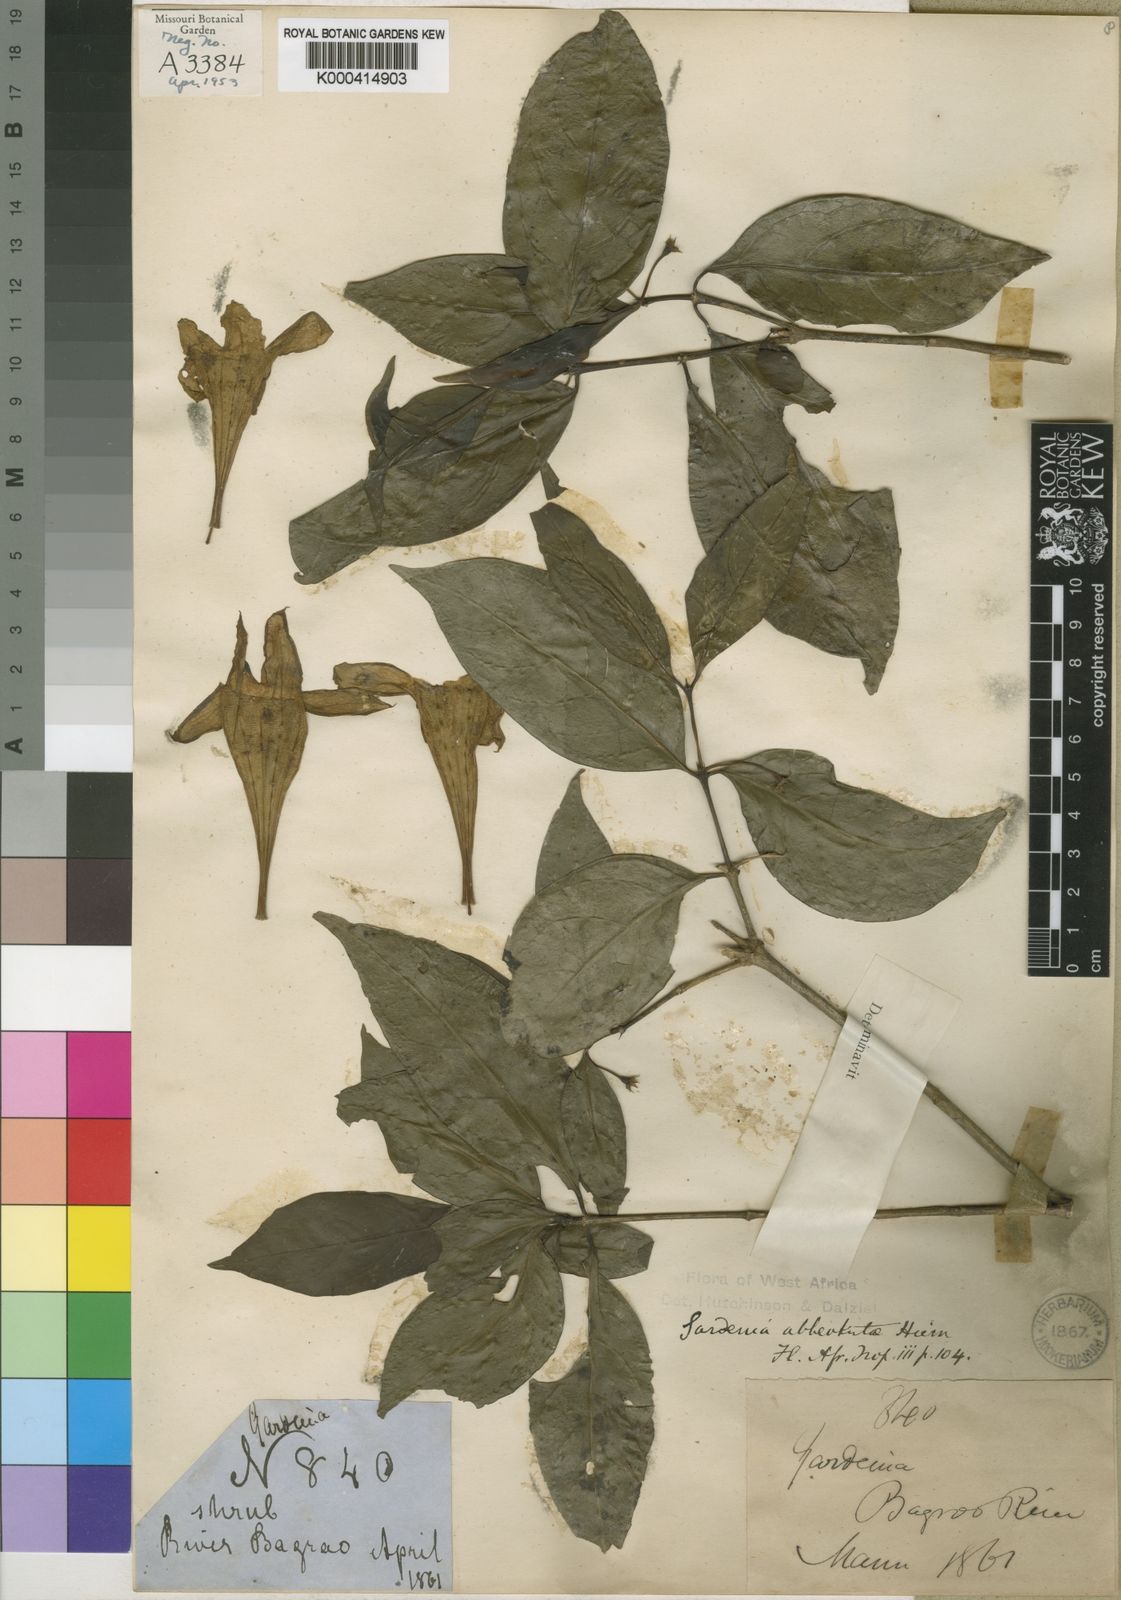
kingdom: Plantae
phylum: Tracheophyta
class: Magnoliopsida
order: Gentianales
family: Rubiaceae
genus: Didymosalpinx
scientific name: Didymosalpinx abbeokutae
